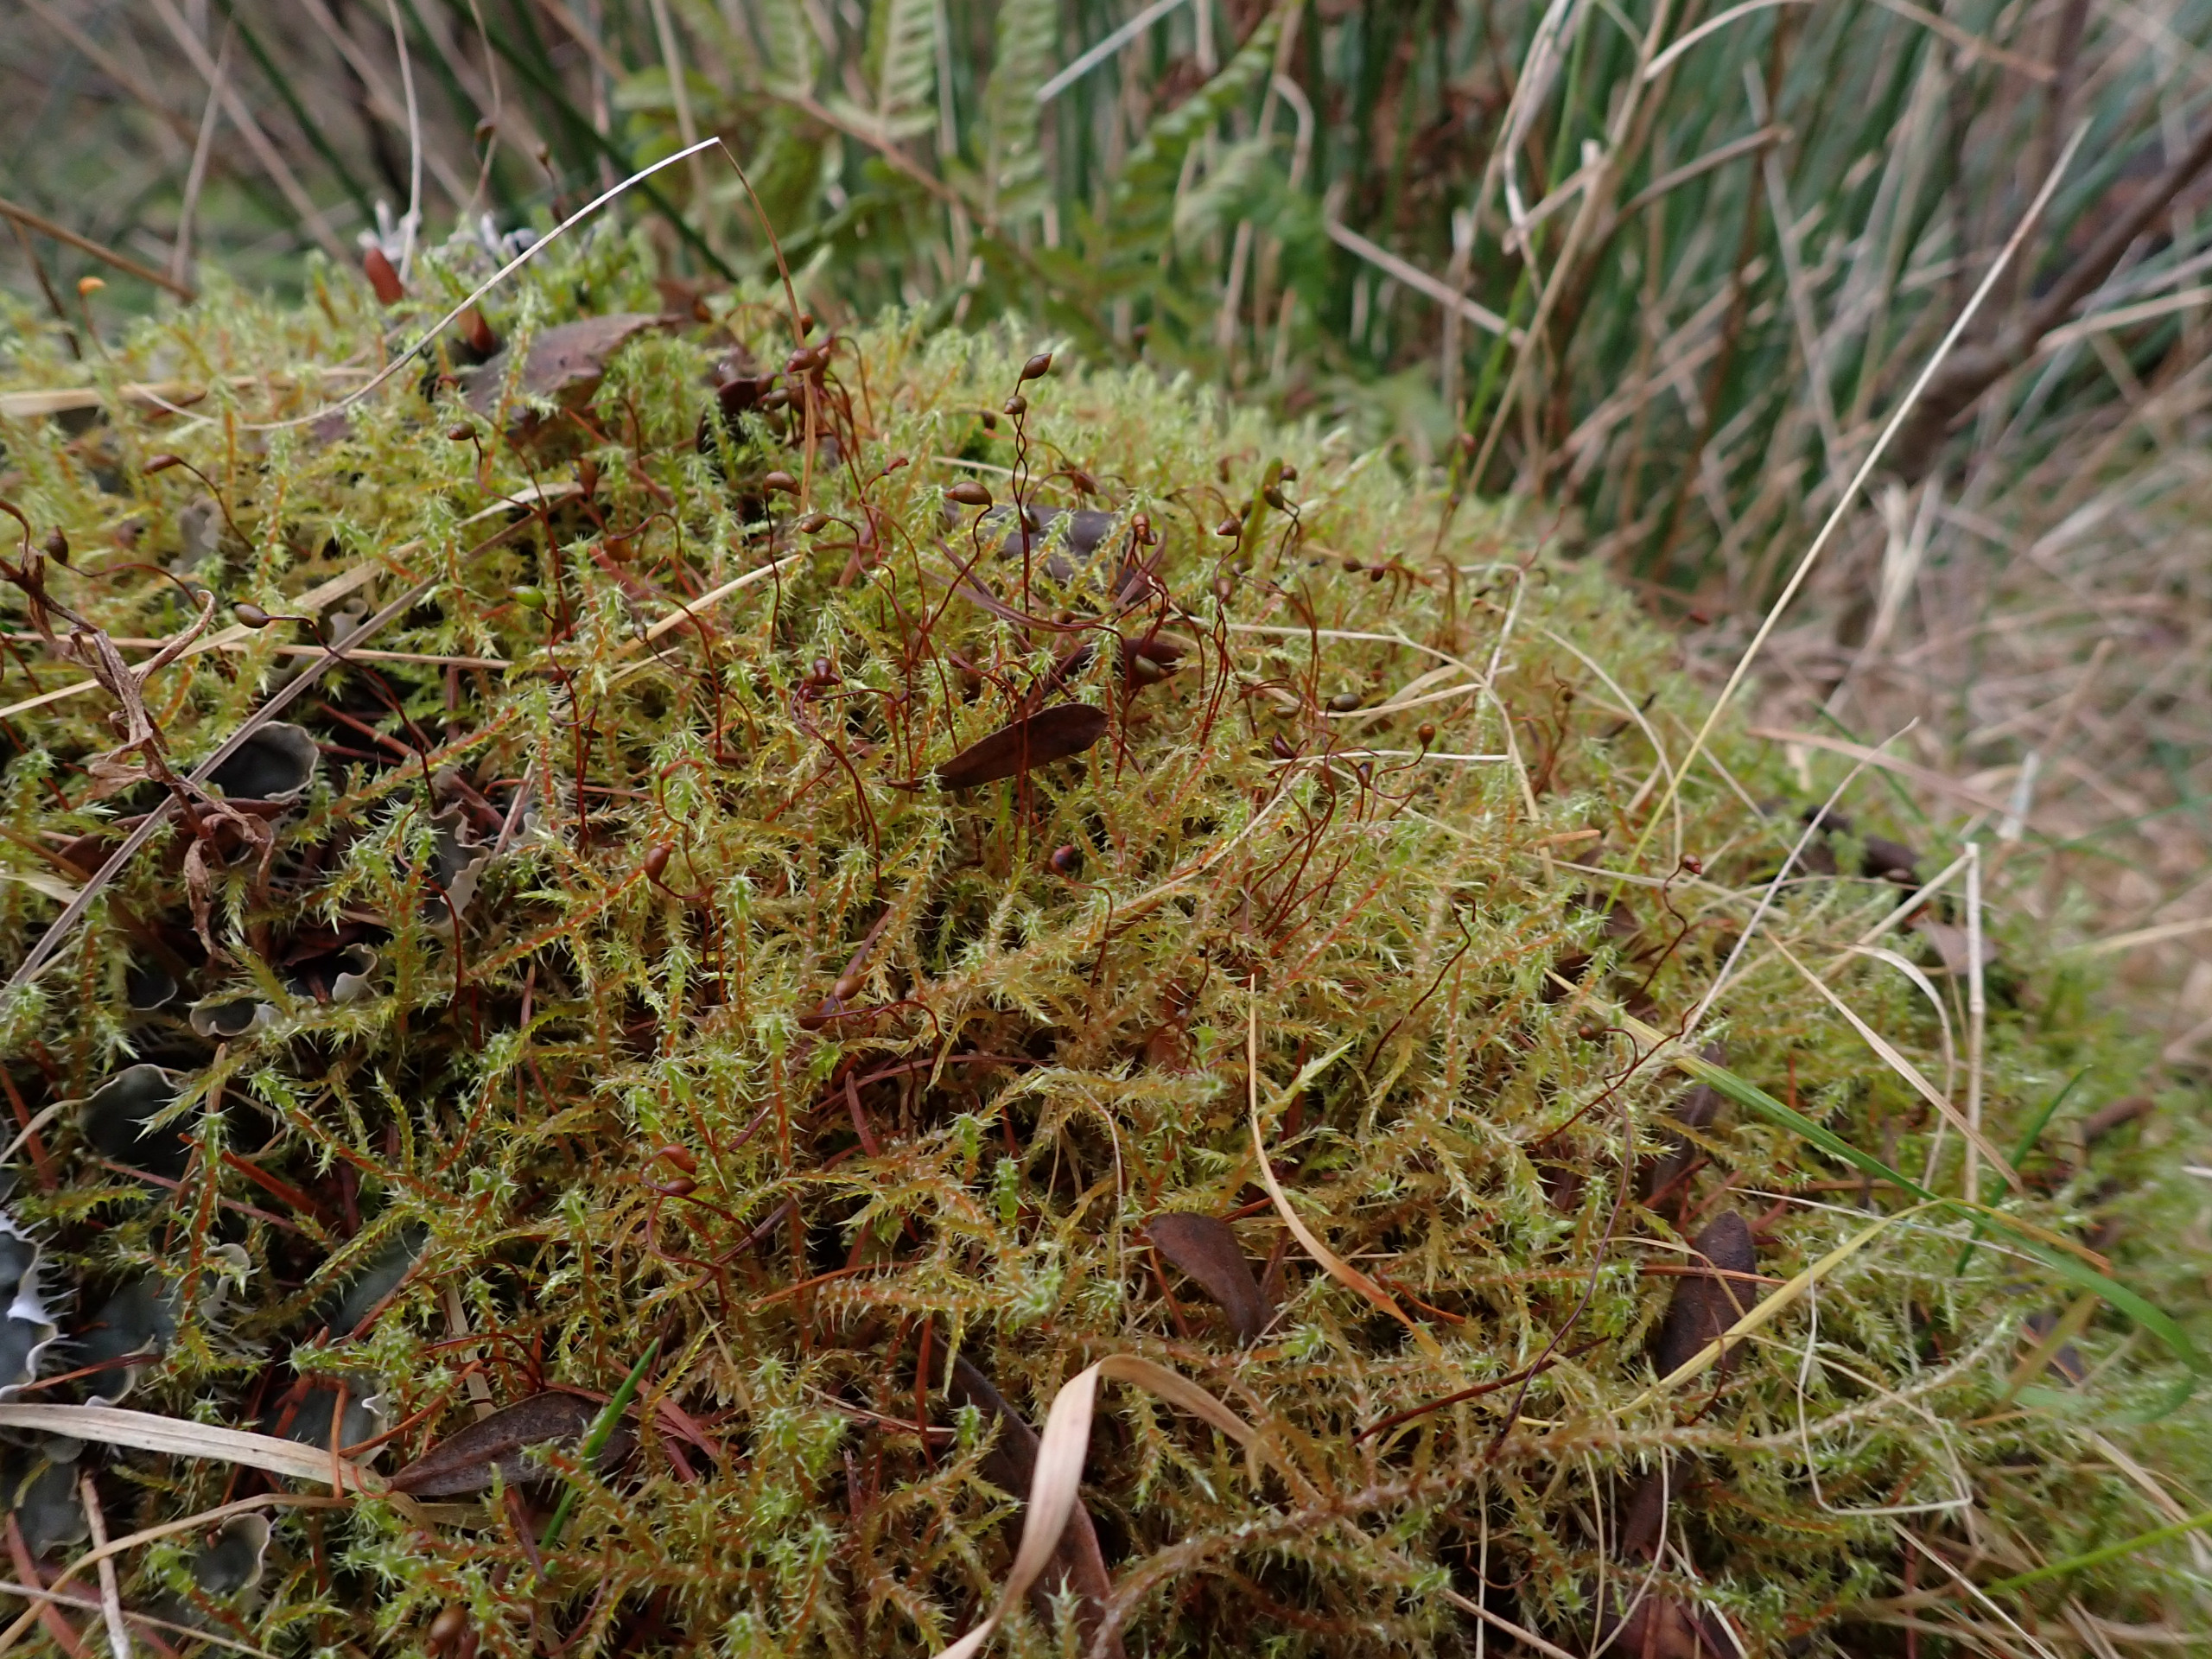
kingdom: Plantae
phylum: Bryophyta
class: Bryopsida
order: Hypnales
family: Hylocomiaceae
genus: Rhytidiadelphus
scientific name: Rhytidiadelphus squarrosus
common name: Plæne-kransemos
